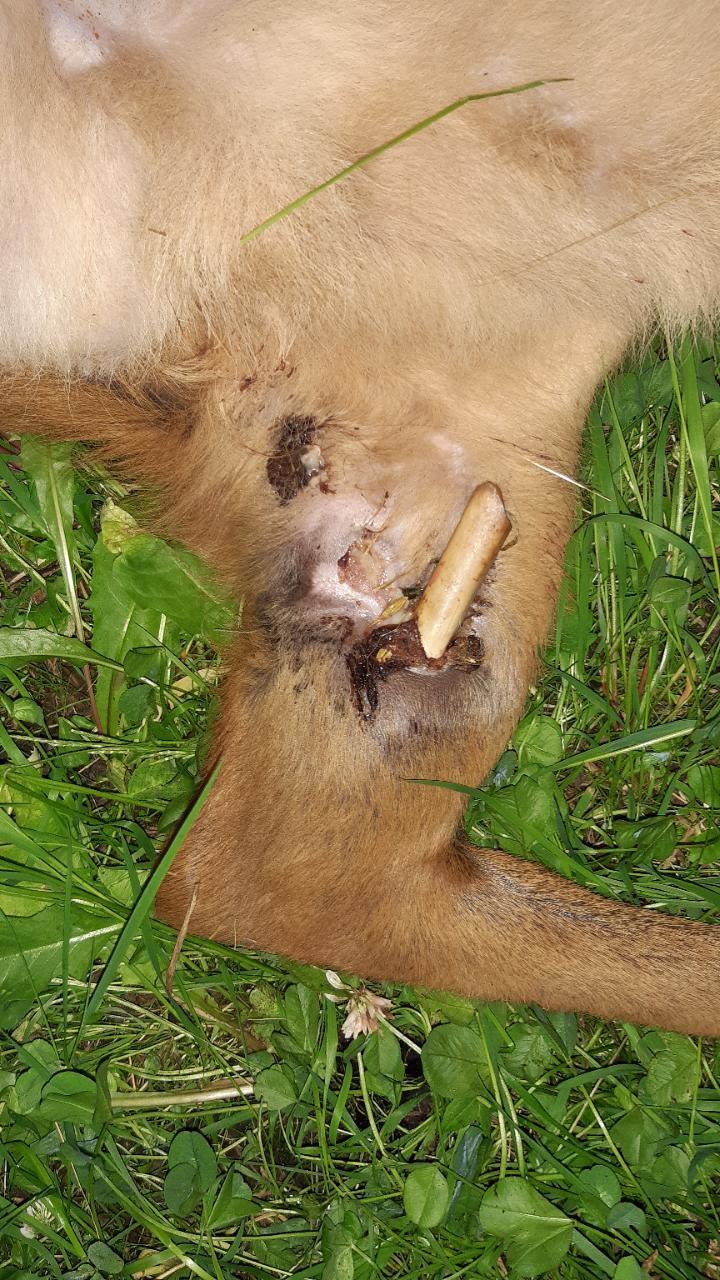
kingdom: Animalia
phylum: Chordata
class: Mammalia
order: Artiodactyla
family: Cervidae
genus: Capreolus
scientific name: Capreolus capreolus
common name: Western roe deer
